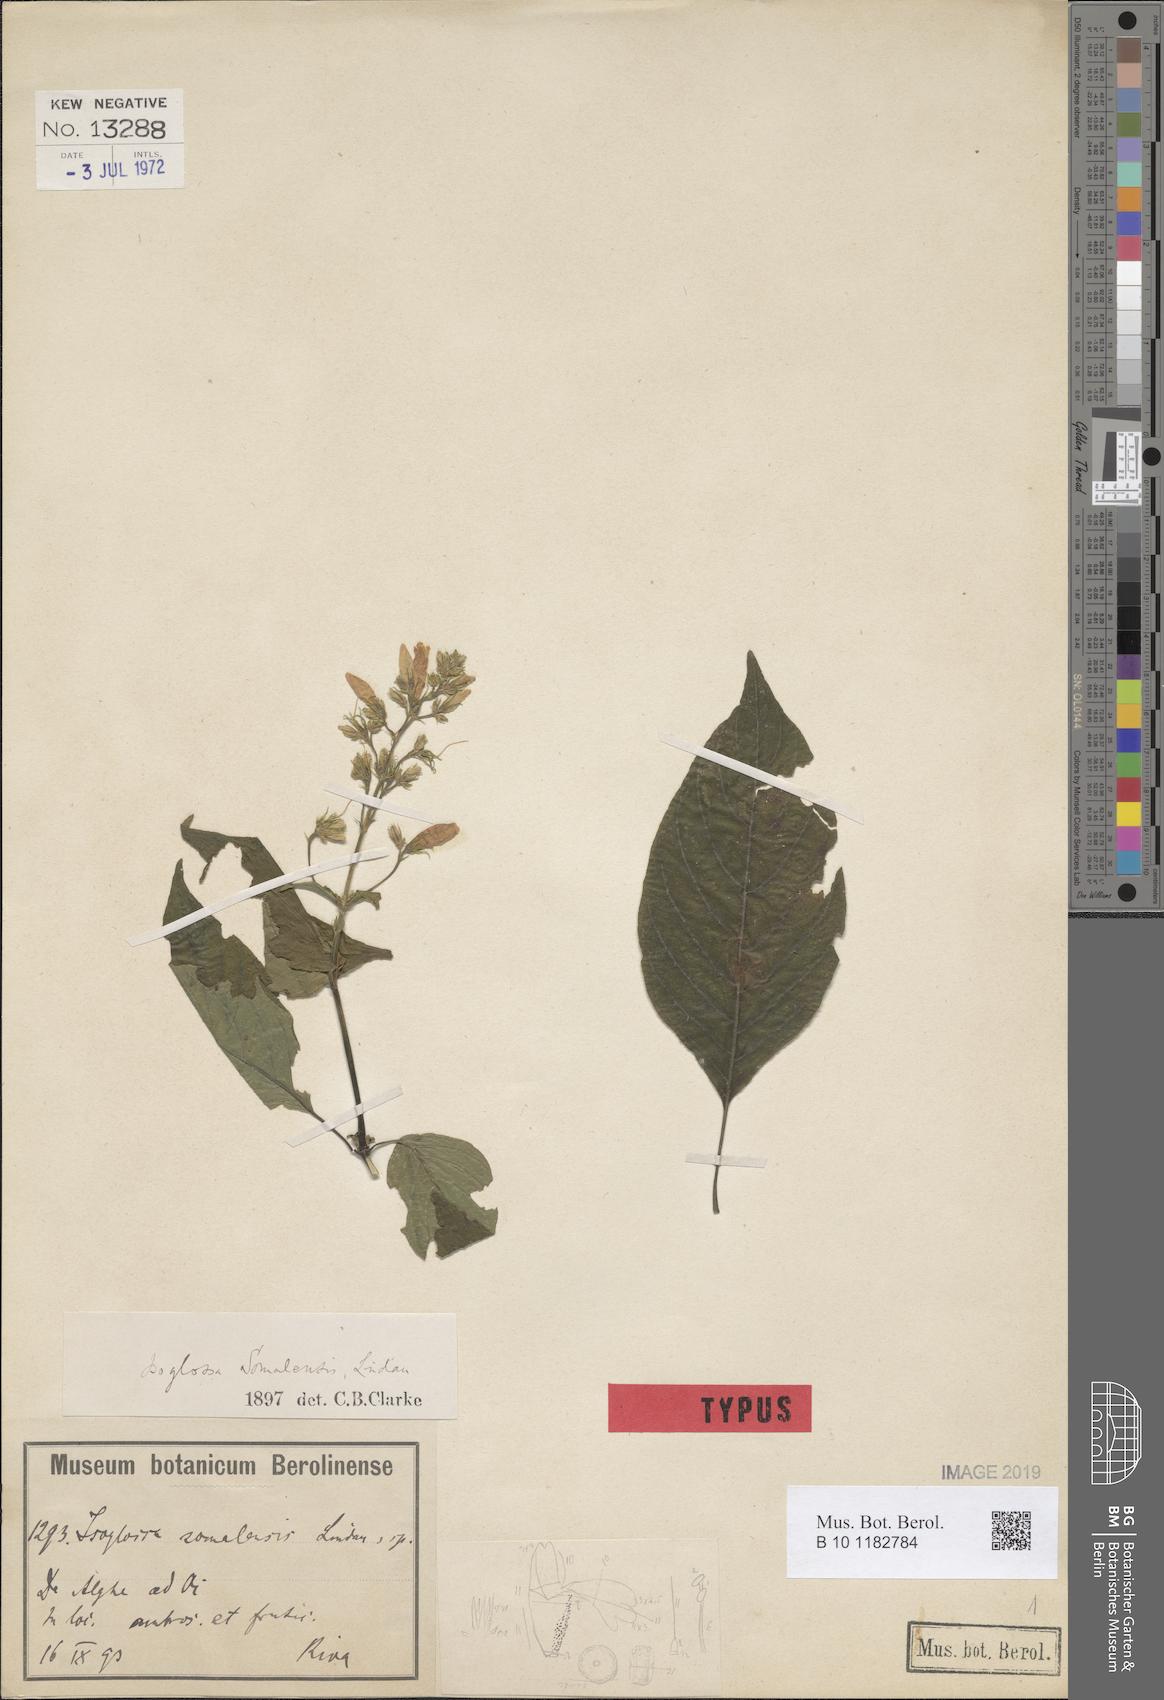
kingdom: Plantae
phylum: Tracheophyta
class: Magnoliopsida
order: Lamiales
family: Acanthaceae
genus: Isoglossa
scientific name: Isoglossa somalensis
